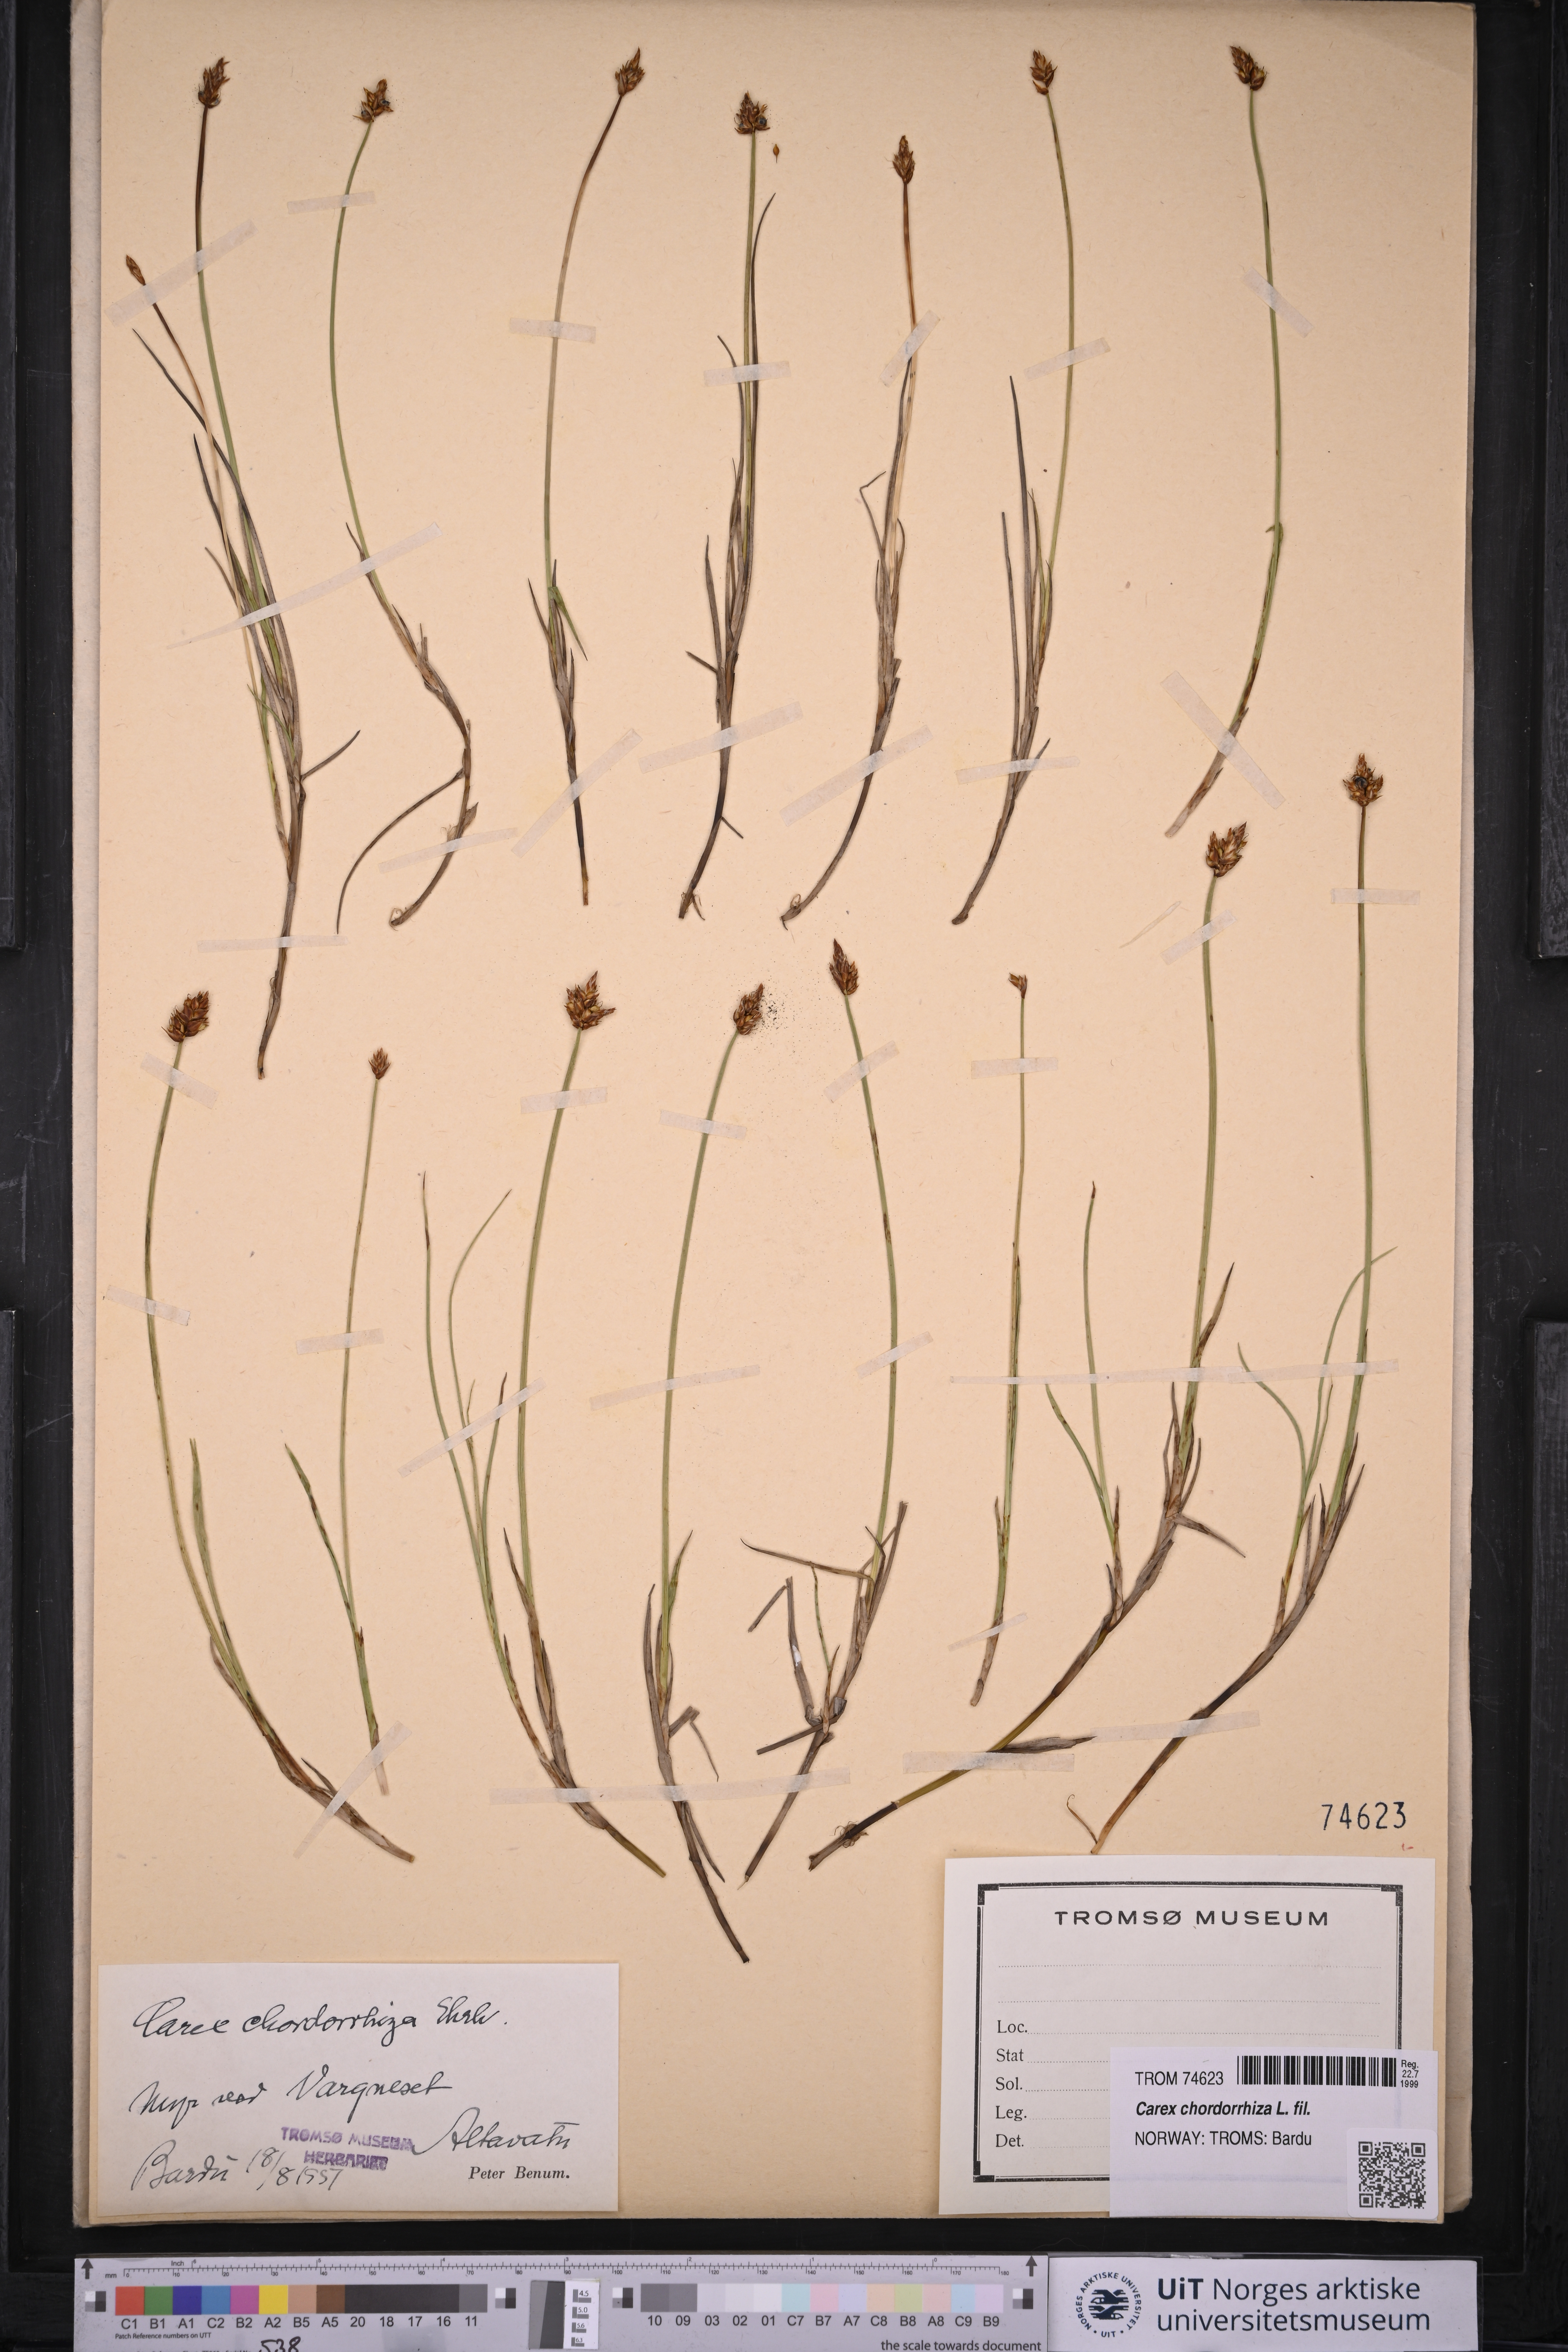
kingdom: Plantae
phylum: Tracheophyta
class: Liliopsida
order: Poales
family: Cyperaceae
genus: Carex
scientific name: Carex chordorrhiza
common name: String sedge
